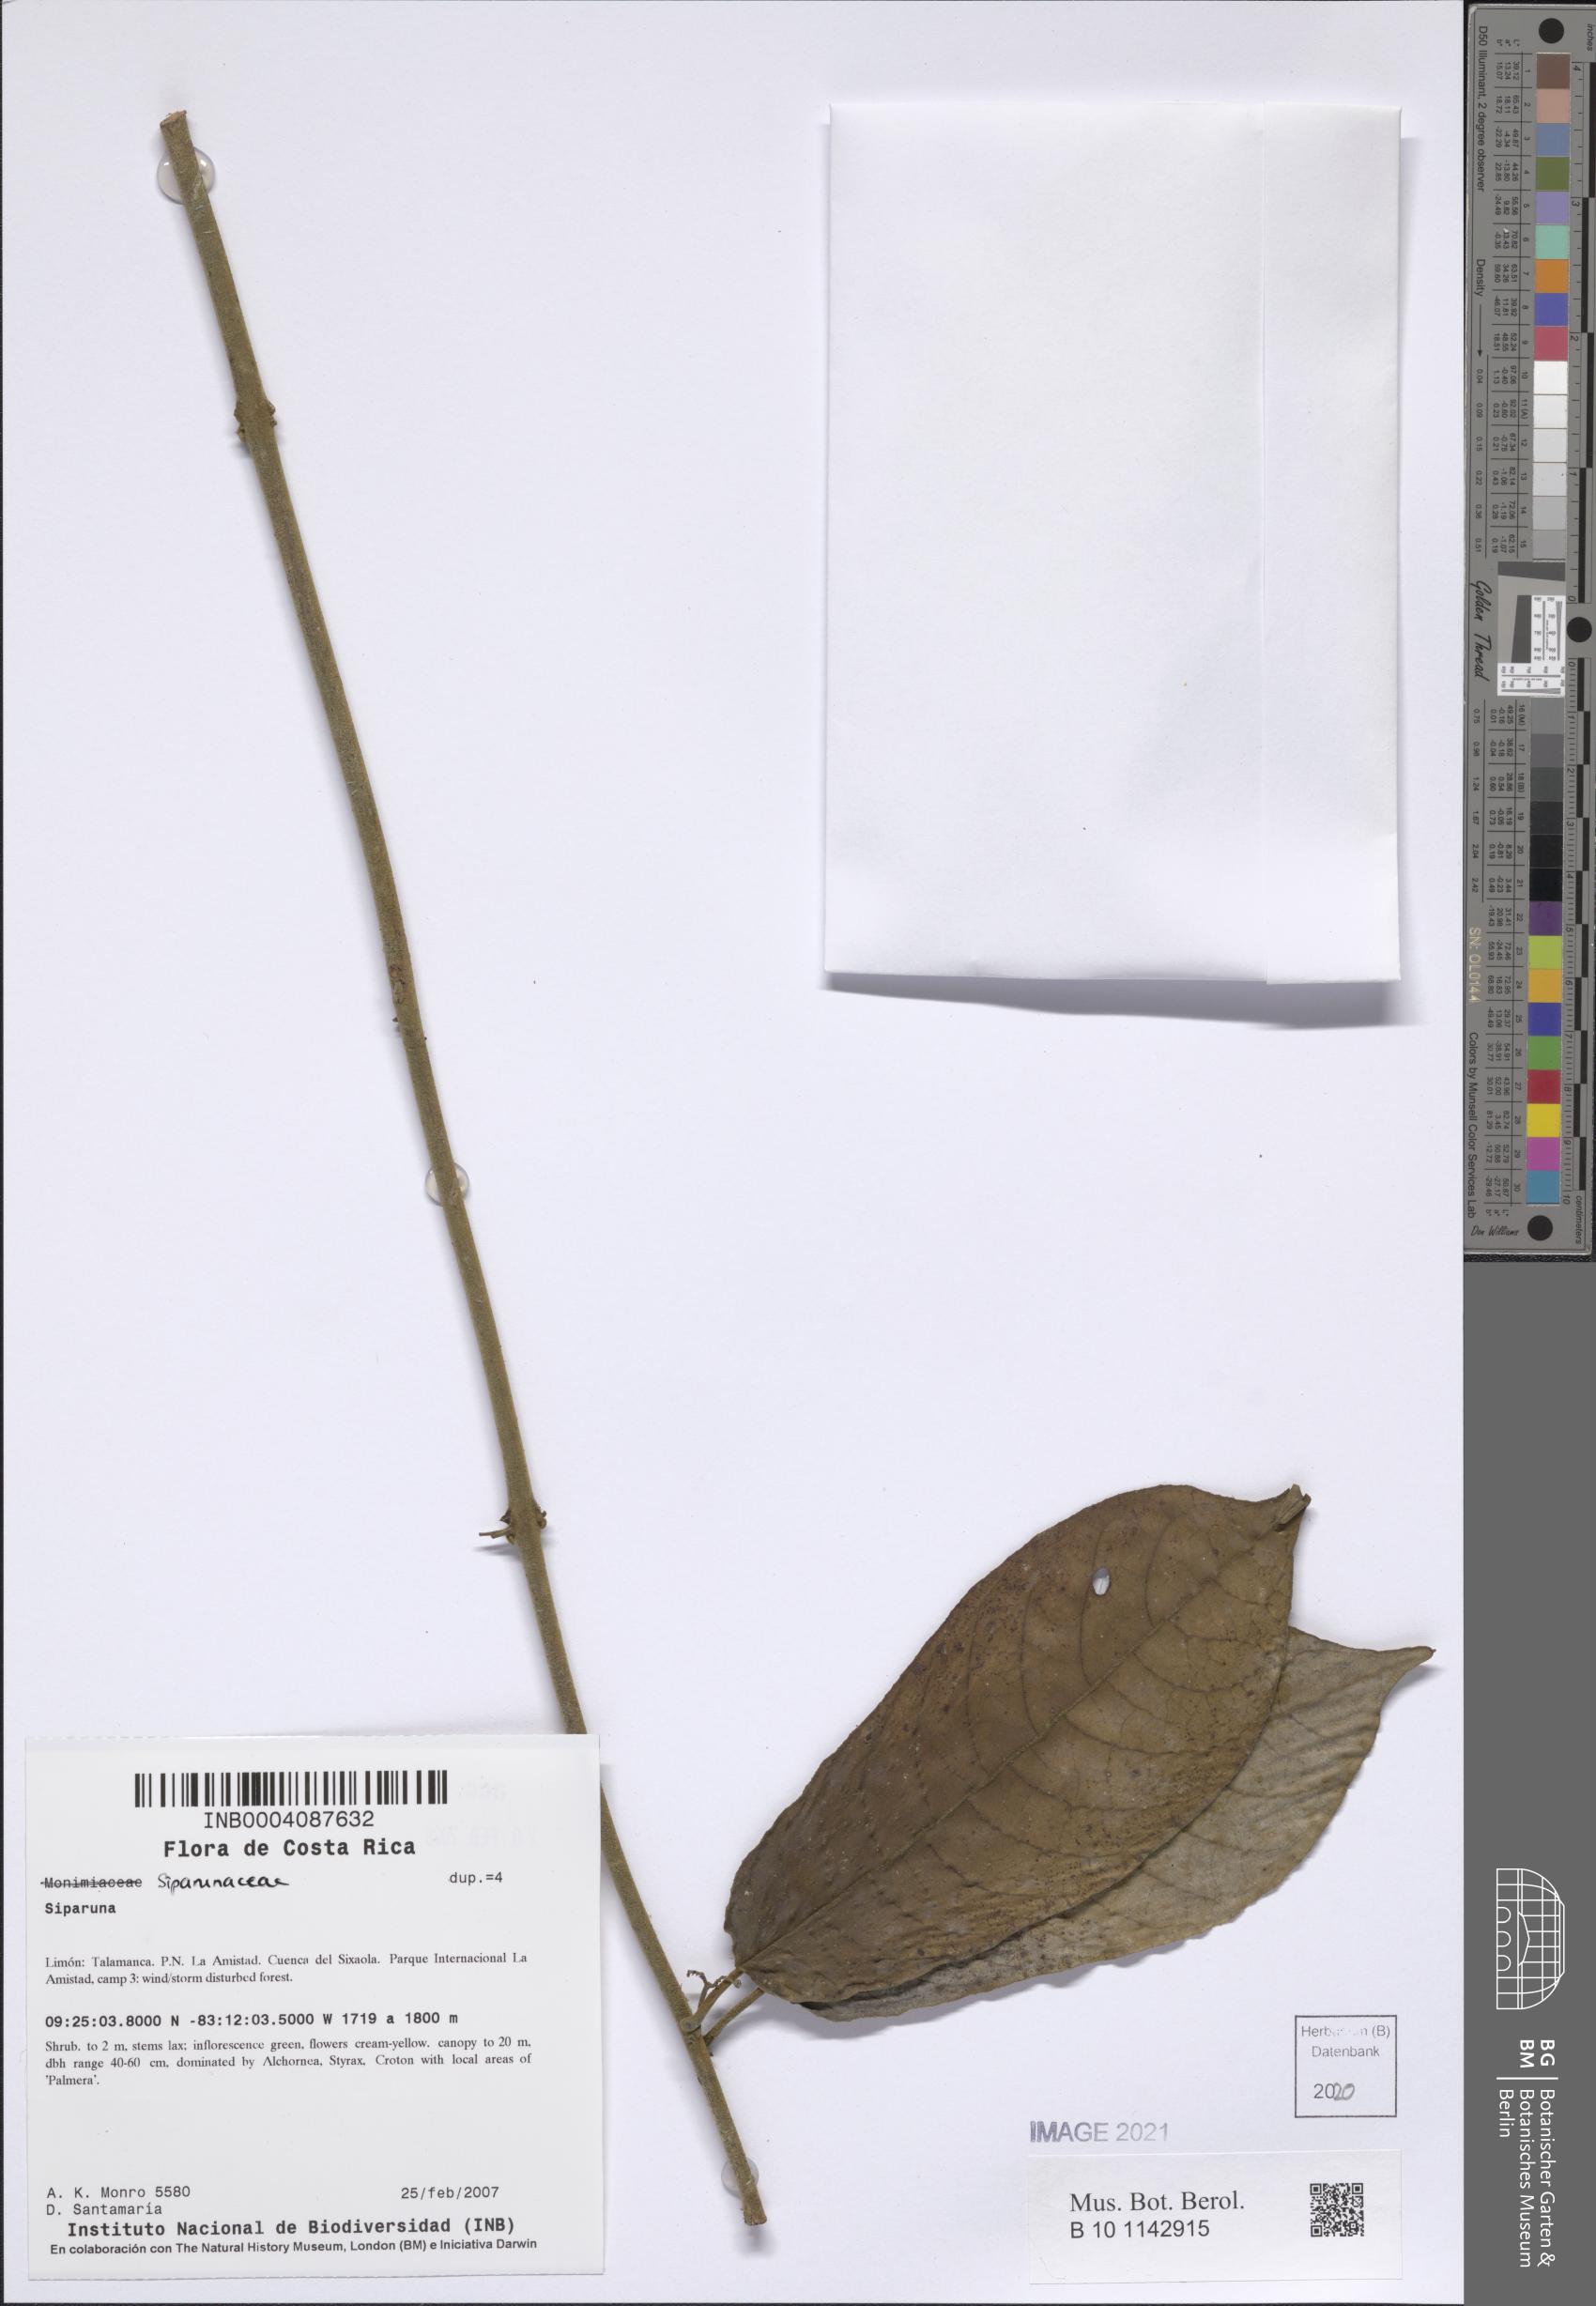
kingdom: Plantae
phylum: Tracheophyta
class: Magnoliopsida
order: Laurales
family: Siparunaceae
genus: Siparuna
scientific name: Siparuna
